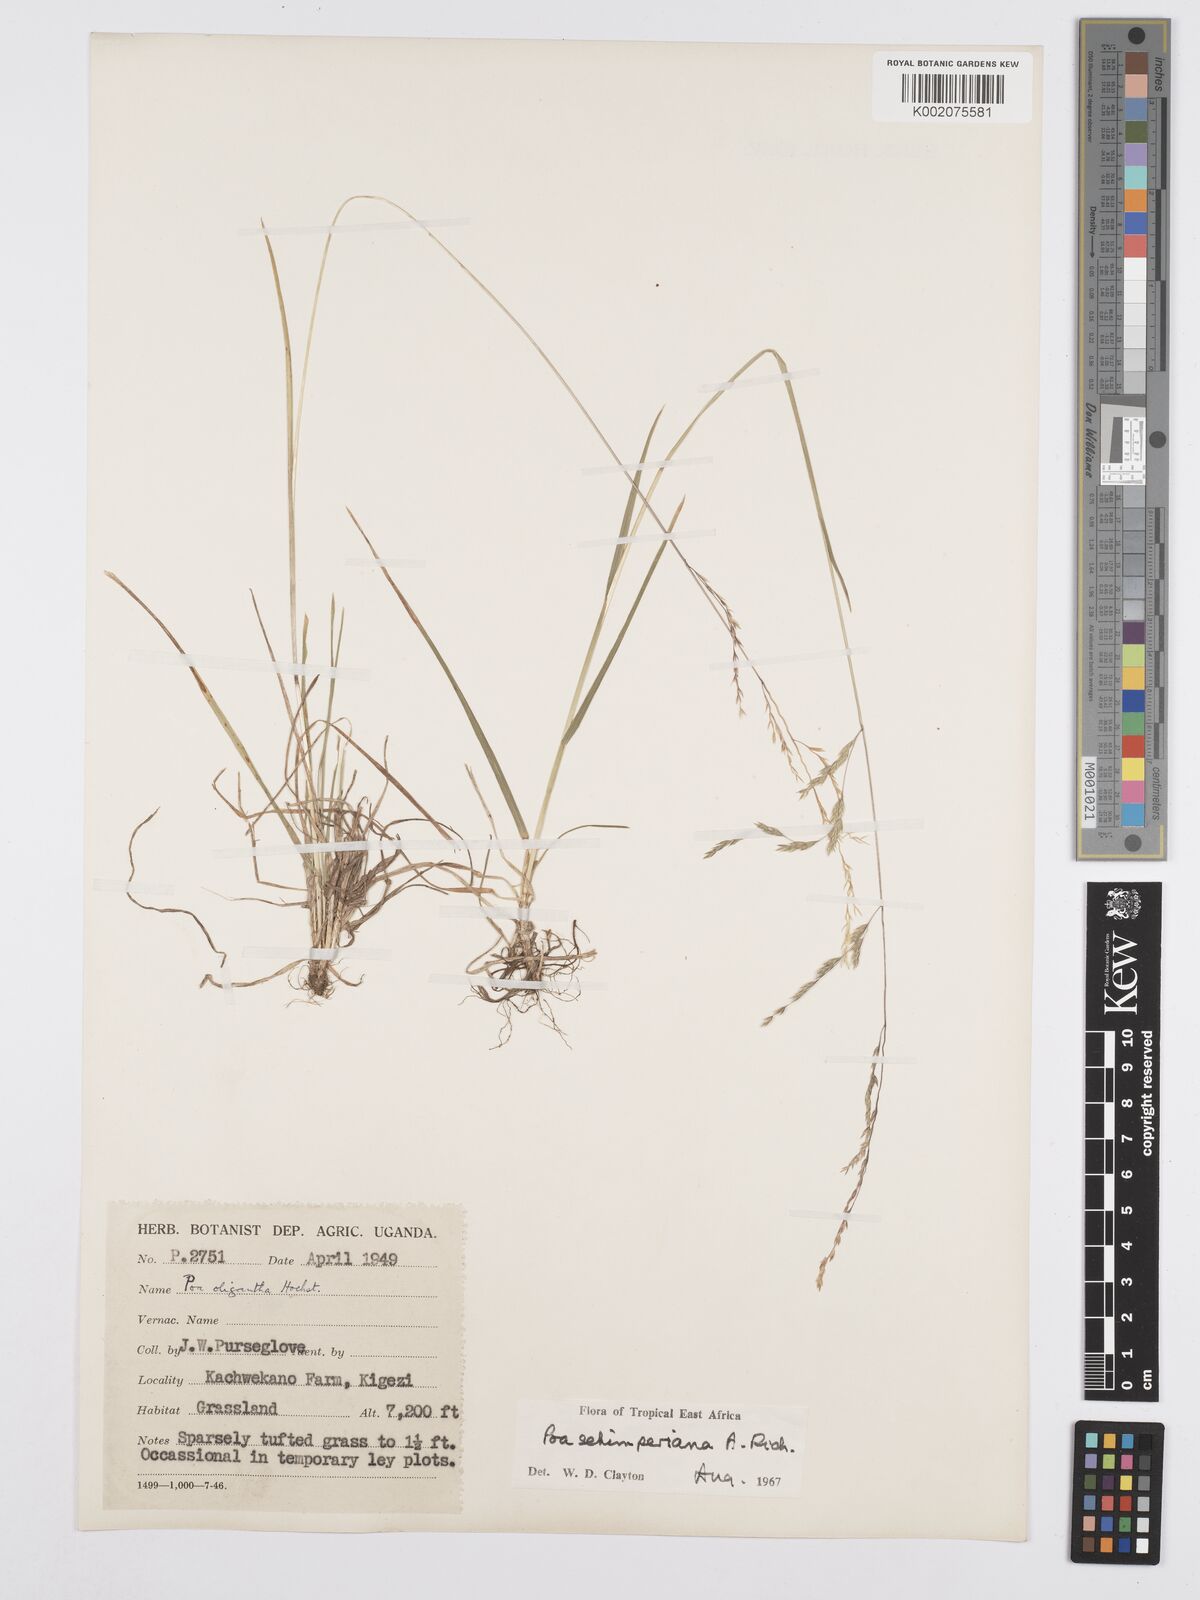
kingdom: Plantae
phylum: Tracheophyta
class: Liliopsida
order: Poales
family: Poaceae
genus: Poa
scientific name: Poa schimperiana
